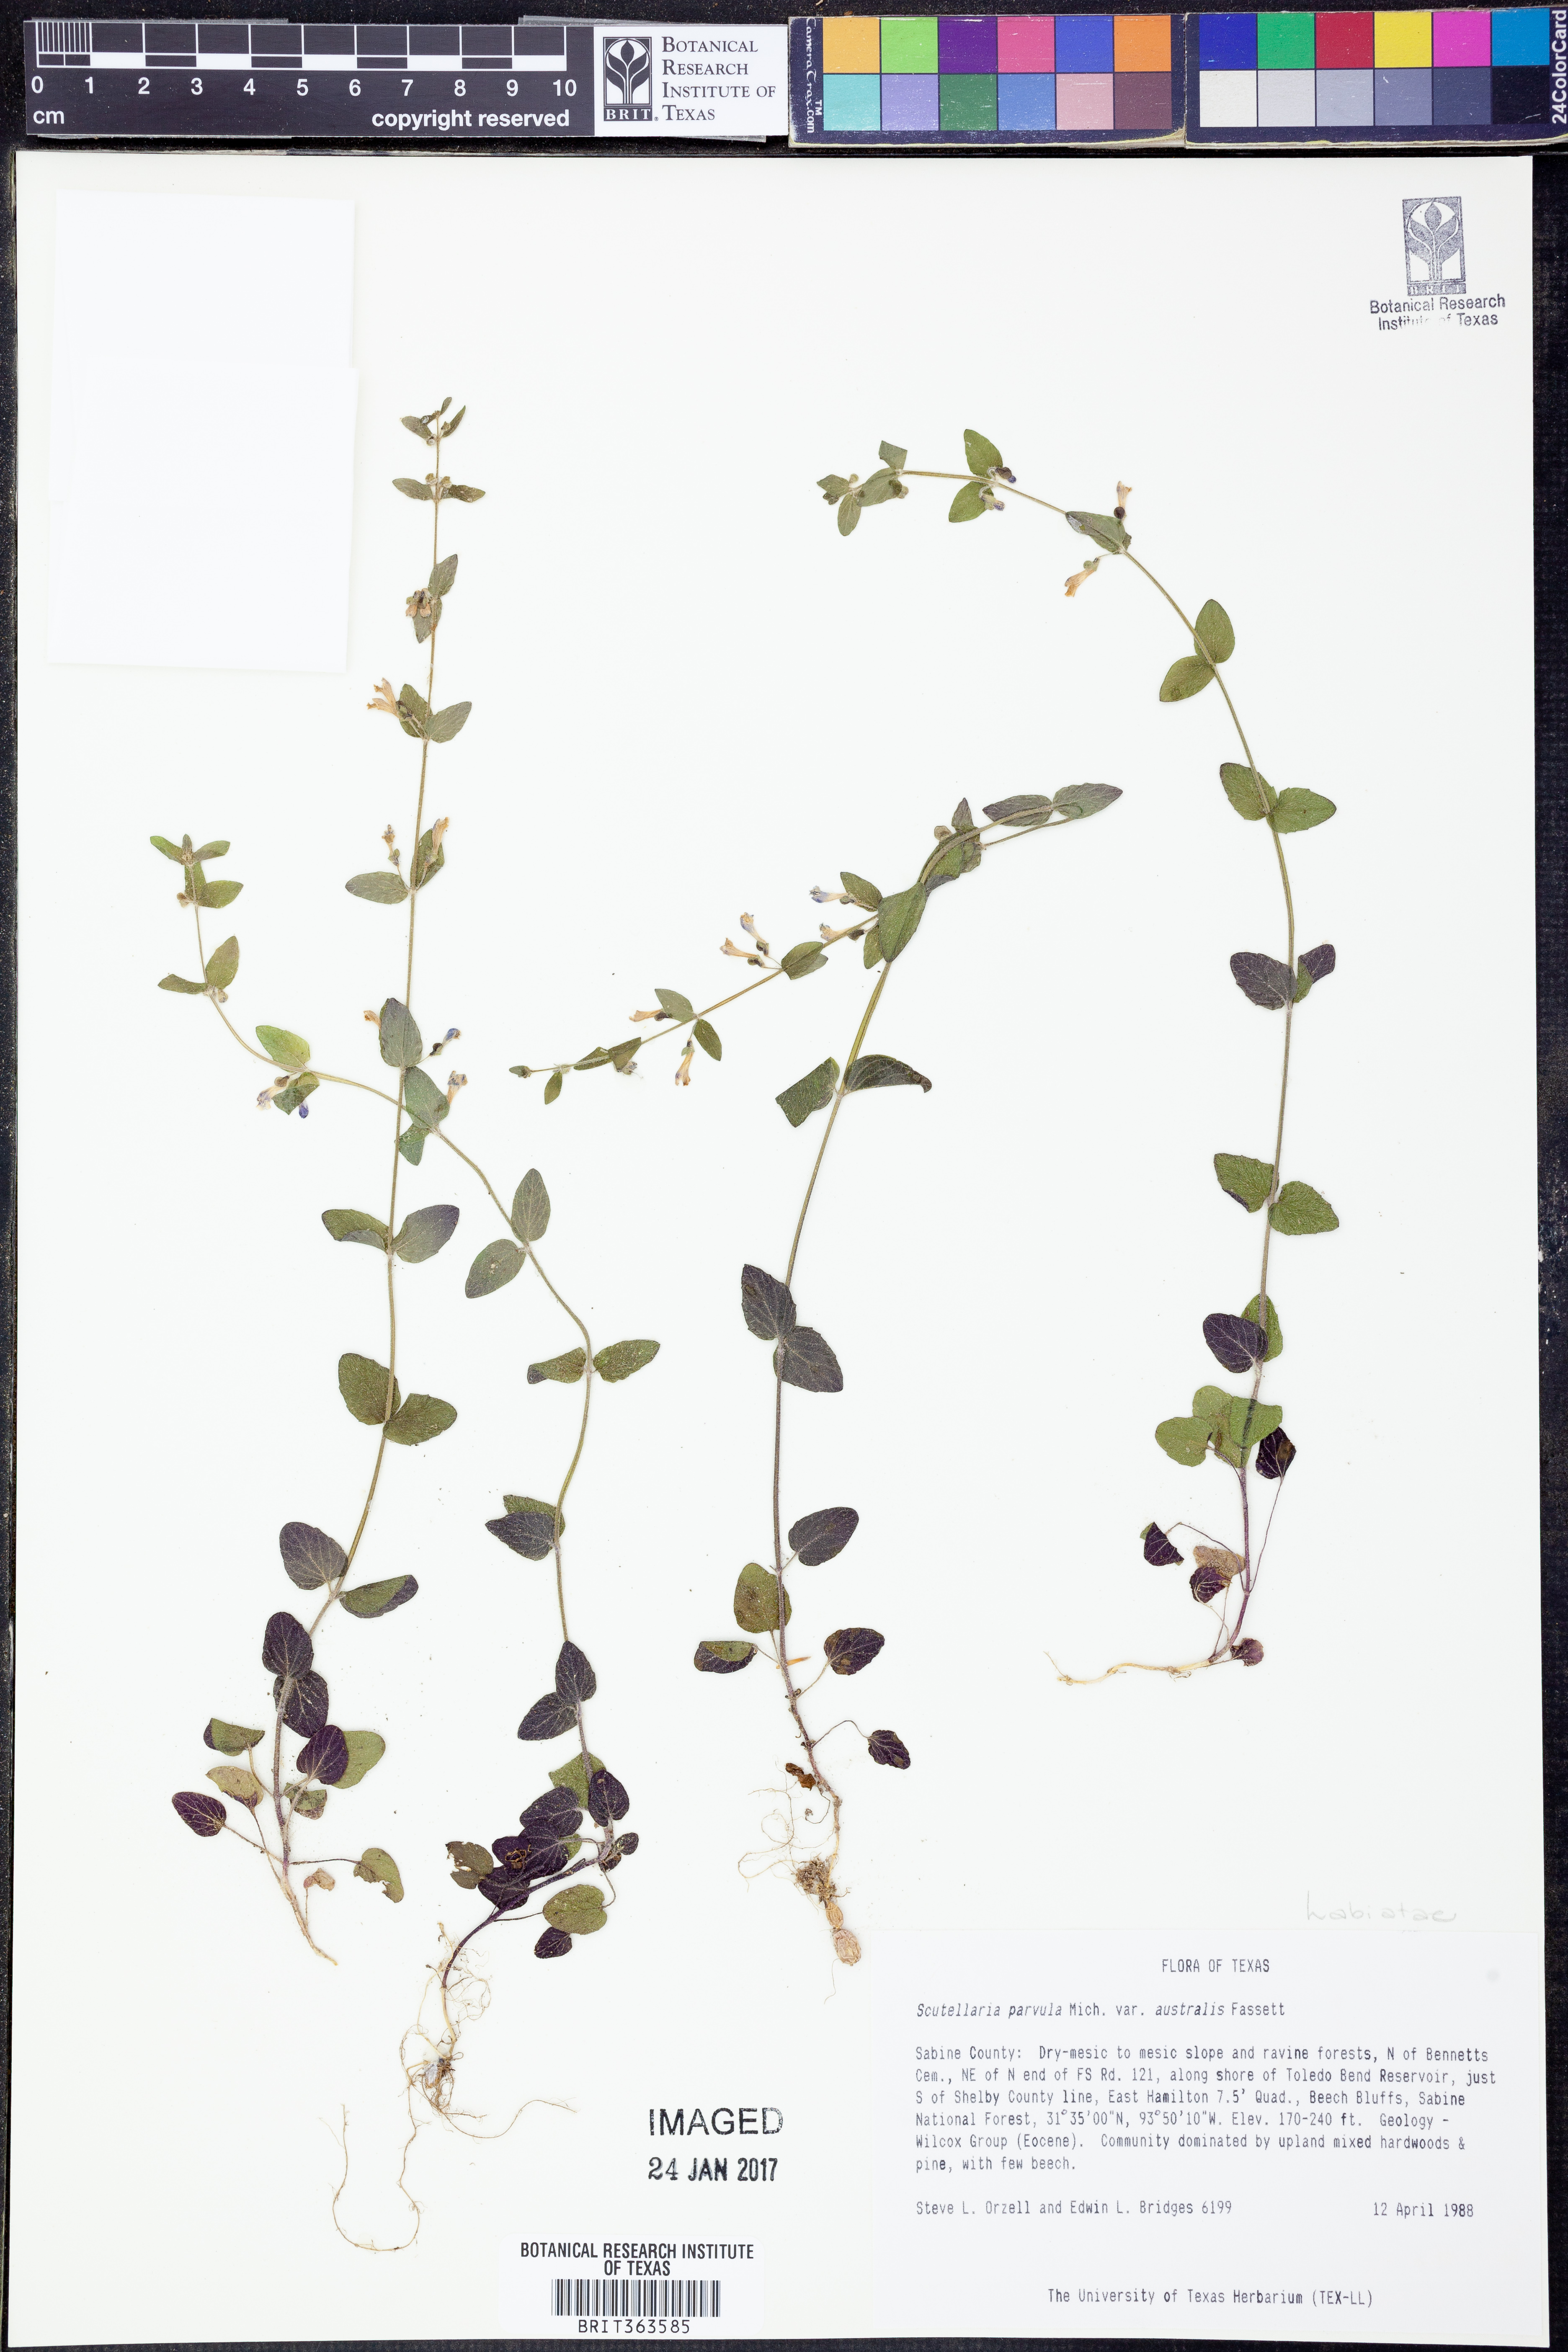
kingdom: Plantae
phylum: Tracheophyta
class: Magnoliopsida
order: Lamiales
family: Lamiaceae
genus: Scutellaria
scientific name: Scutellaria parvula
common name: Little scullcap
